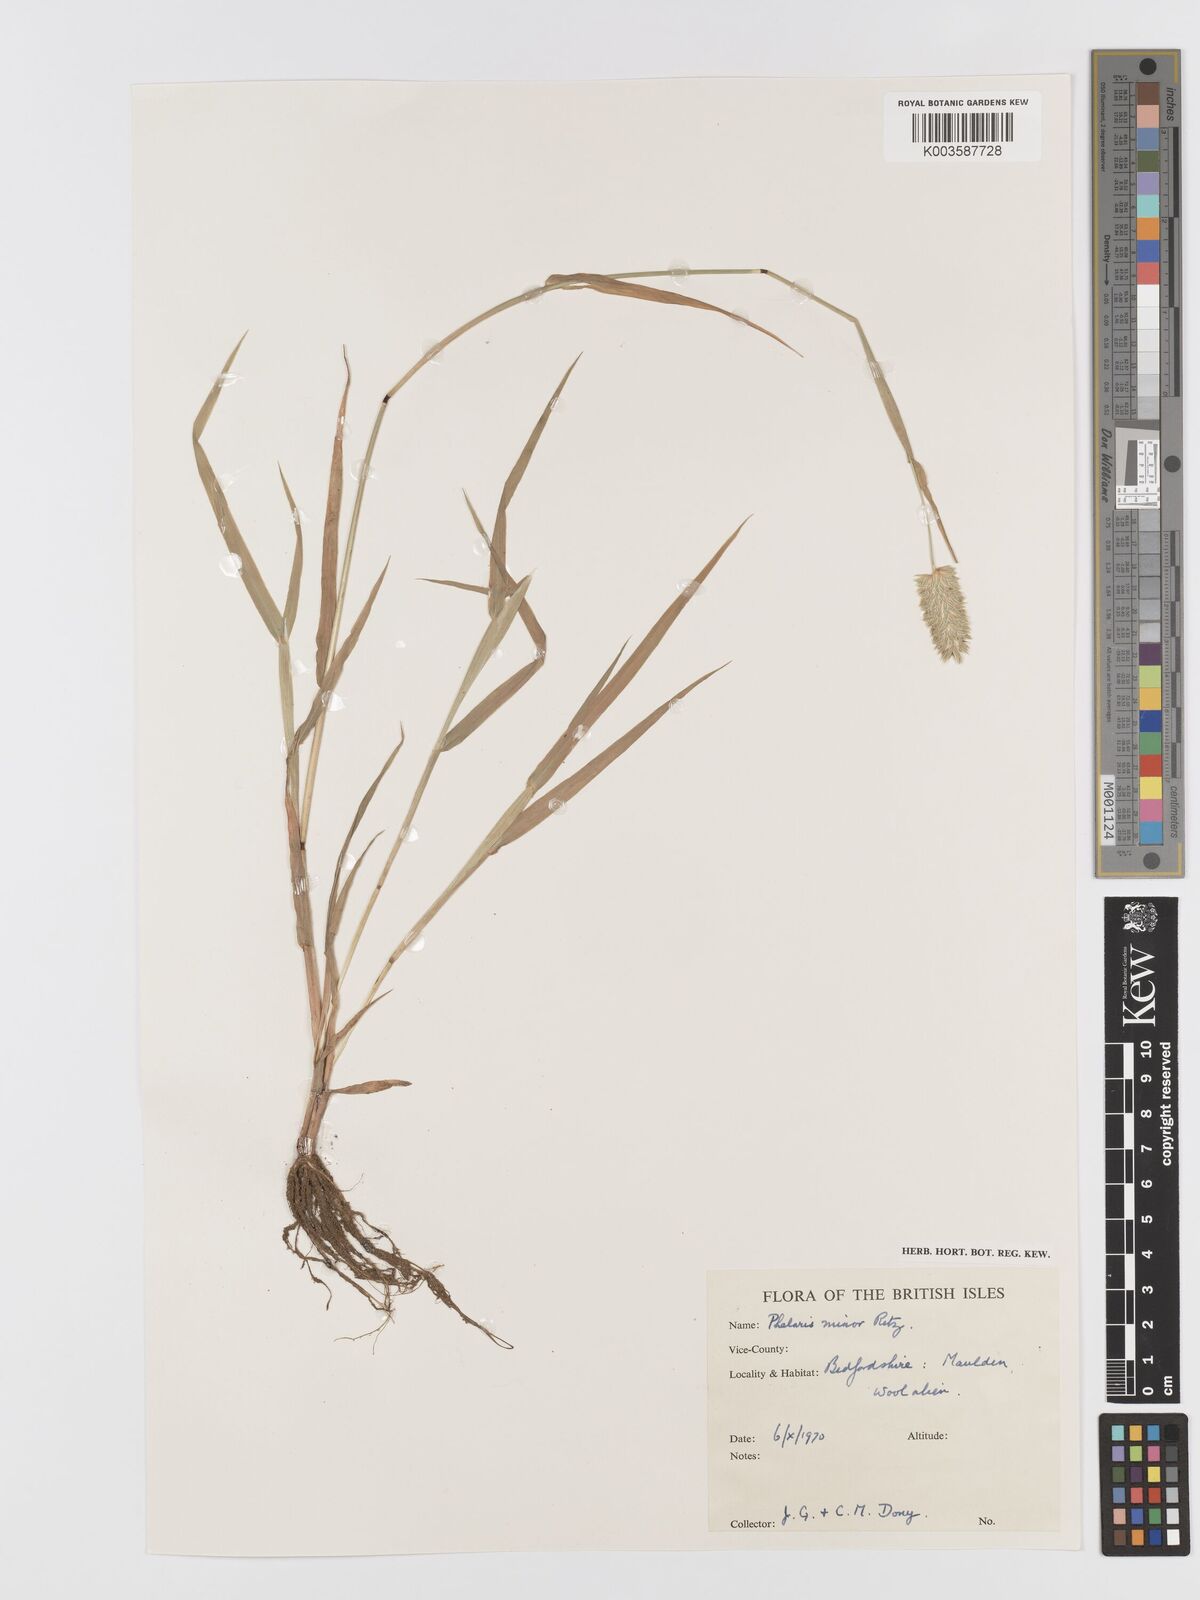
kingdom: Plantae
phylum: Tracheophyta
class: Liliopsida
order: Poales
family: Poaceae
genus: Phalaris
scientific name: Phalaris minor
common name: Littleseed canarygrass
